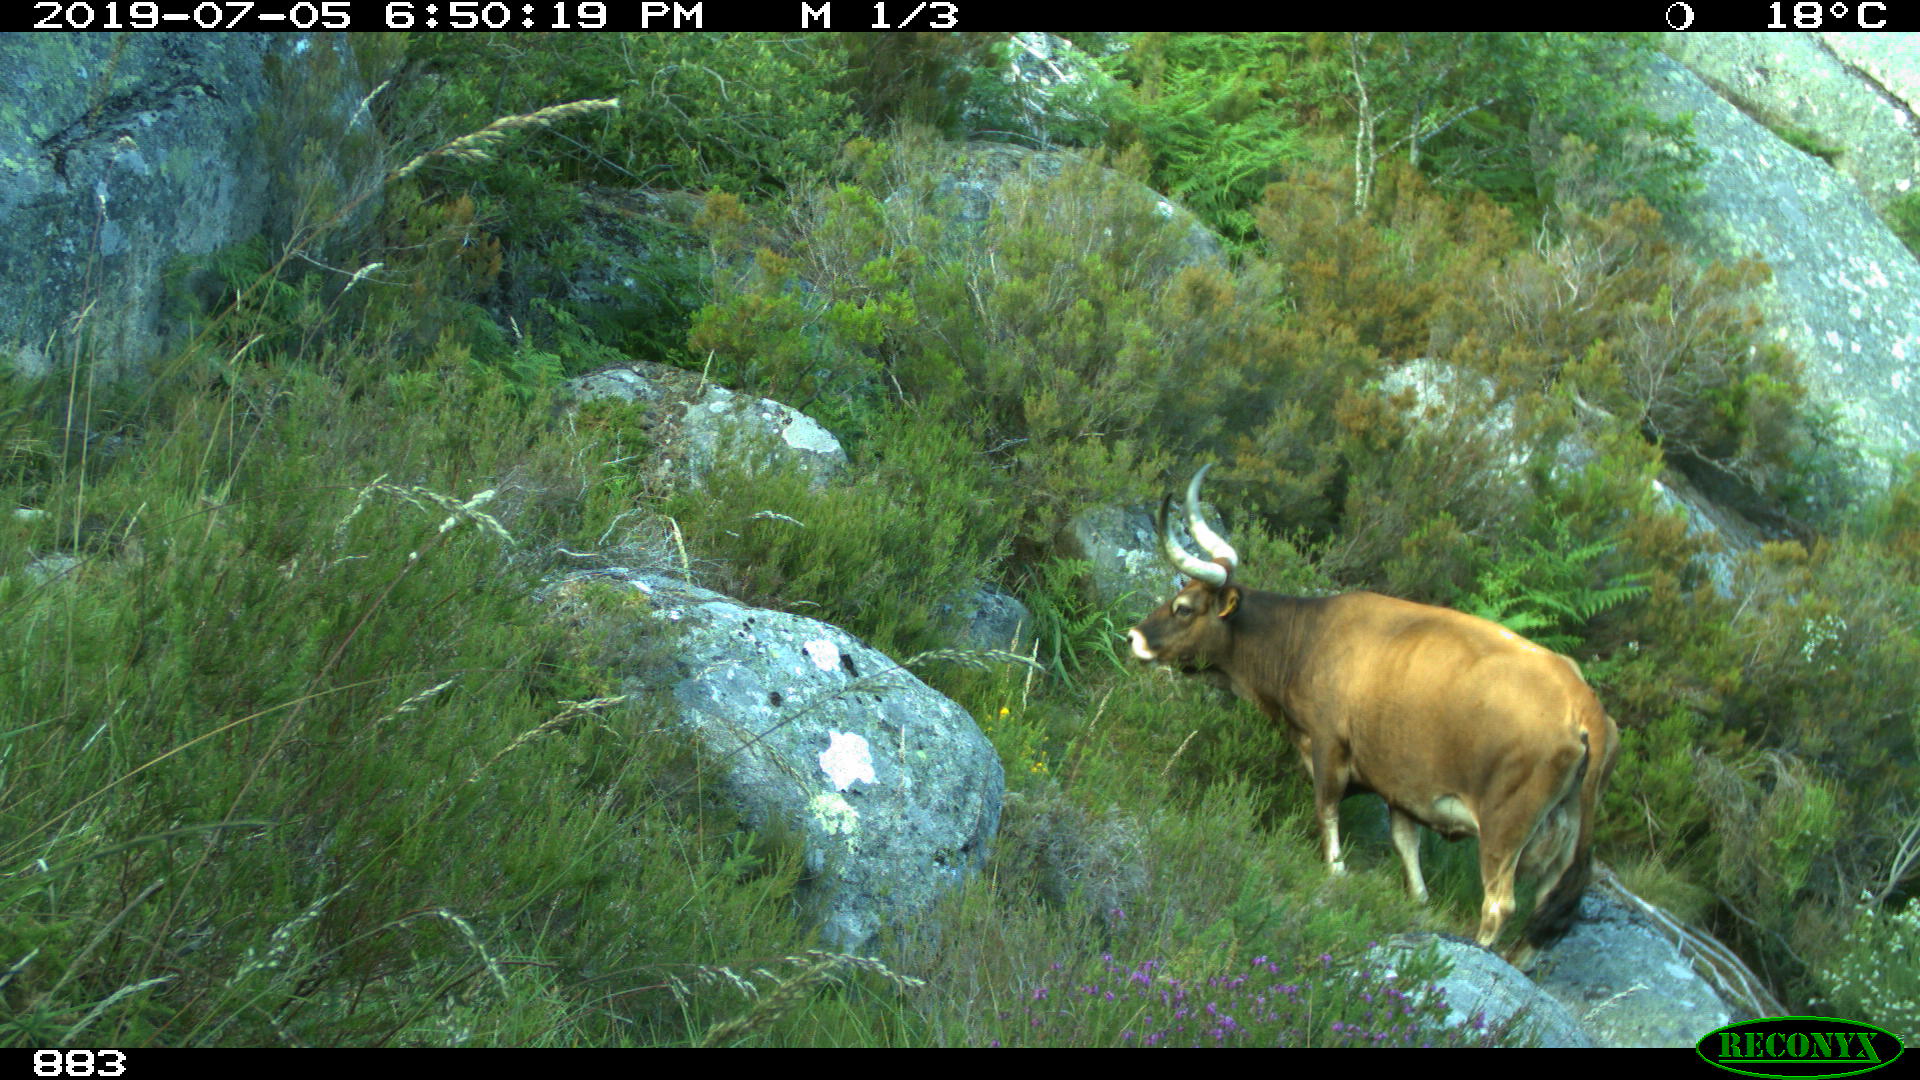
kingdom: Animalia
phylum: Chordata
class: Mammalia
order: Artiodactyla
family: Bovidae
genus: Bos
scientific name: Bos taurus
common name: Domesticated cattle
